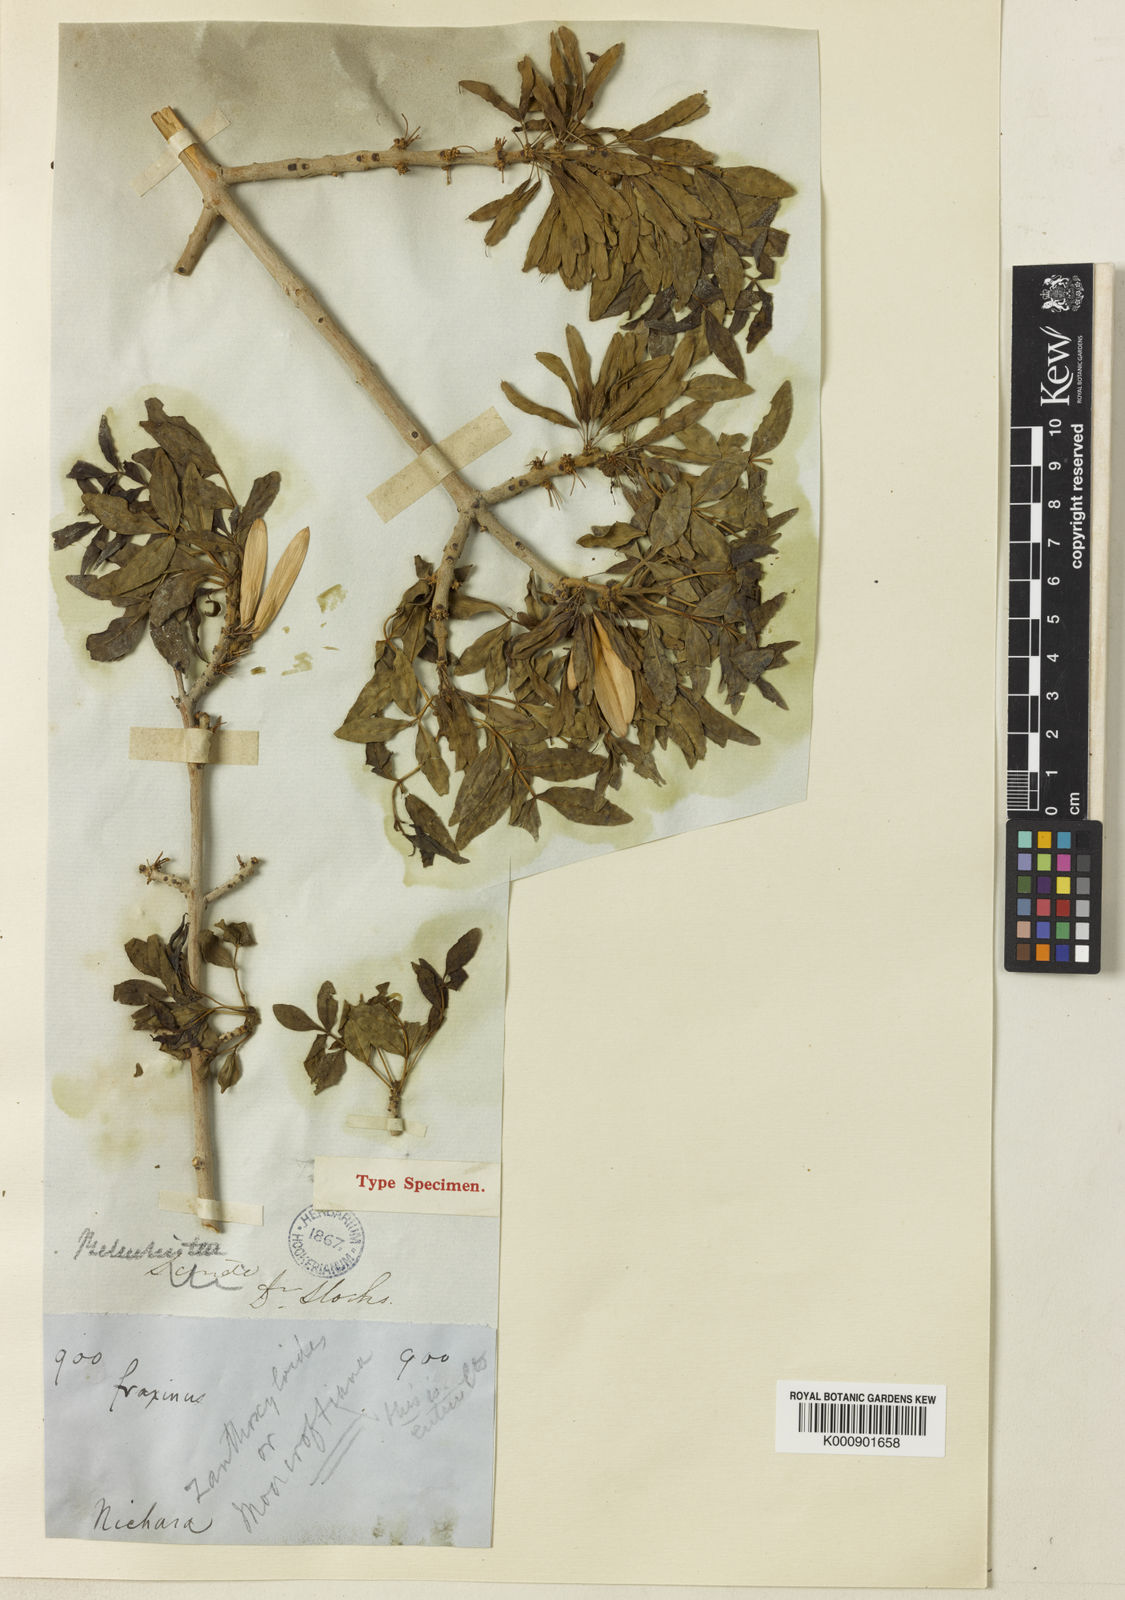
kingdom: Plantae
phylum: Tracheophyta
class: Magnoliopsida
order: Lamiales
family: Oleaceae
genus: Fraxinus
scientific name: Fraxinus xanthoxyloides
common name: Afghan ash
